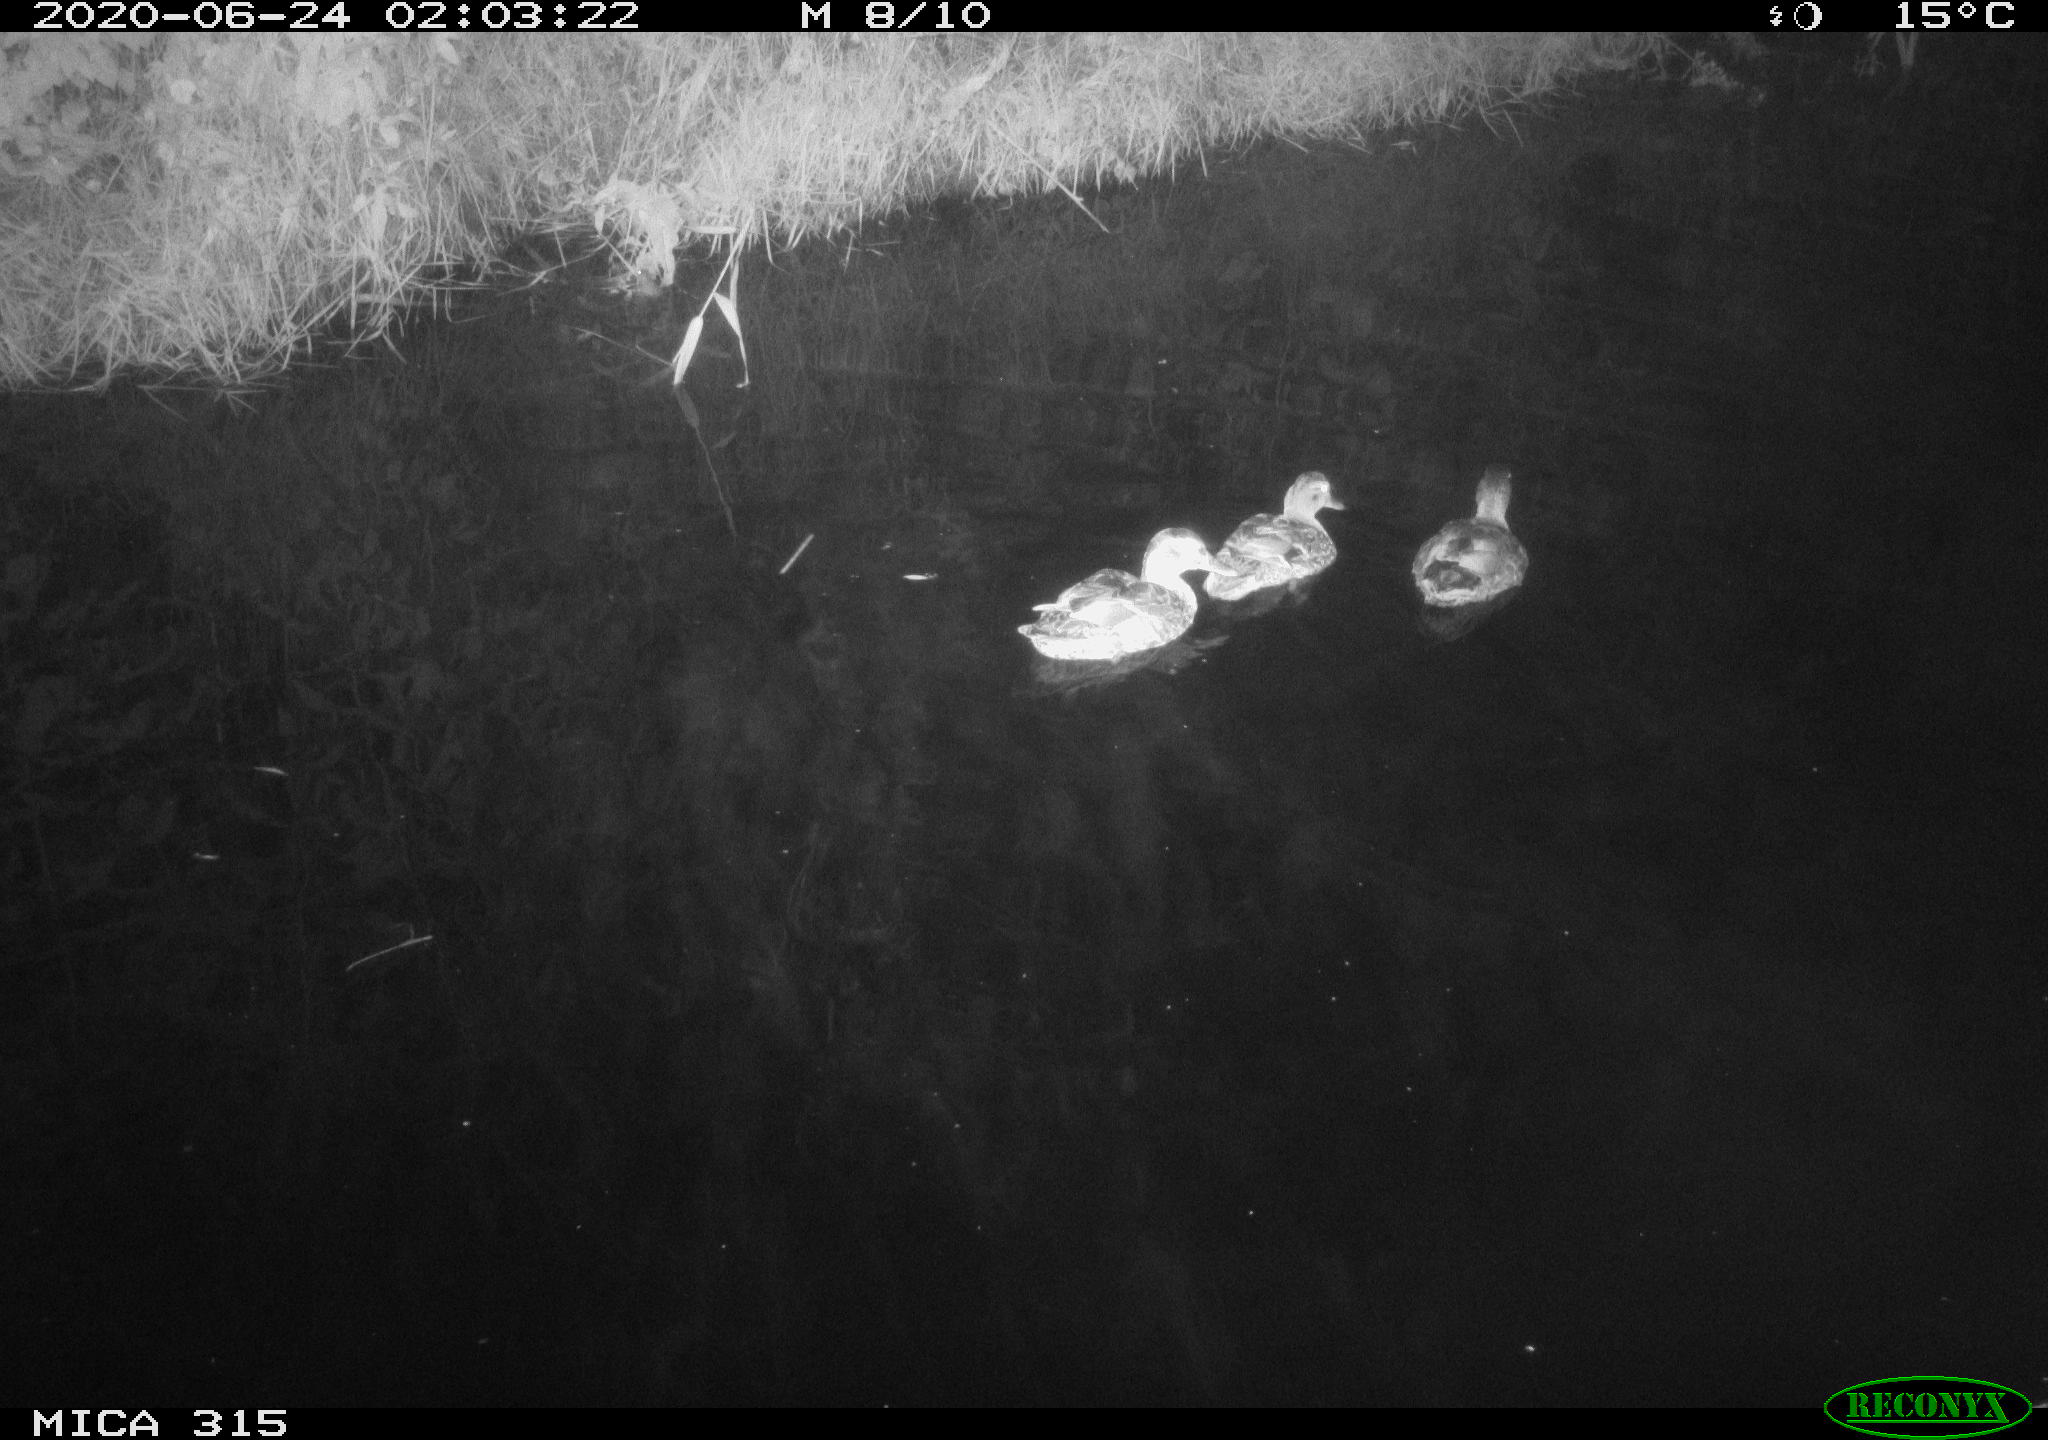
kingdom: Animalia
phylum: Chordata
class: Aves
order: Anseriformes
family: Anatidae
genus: Anas
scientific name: Anas platyrhynchos
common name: Mallard
